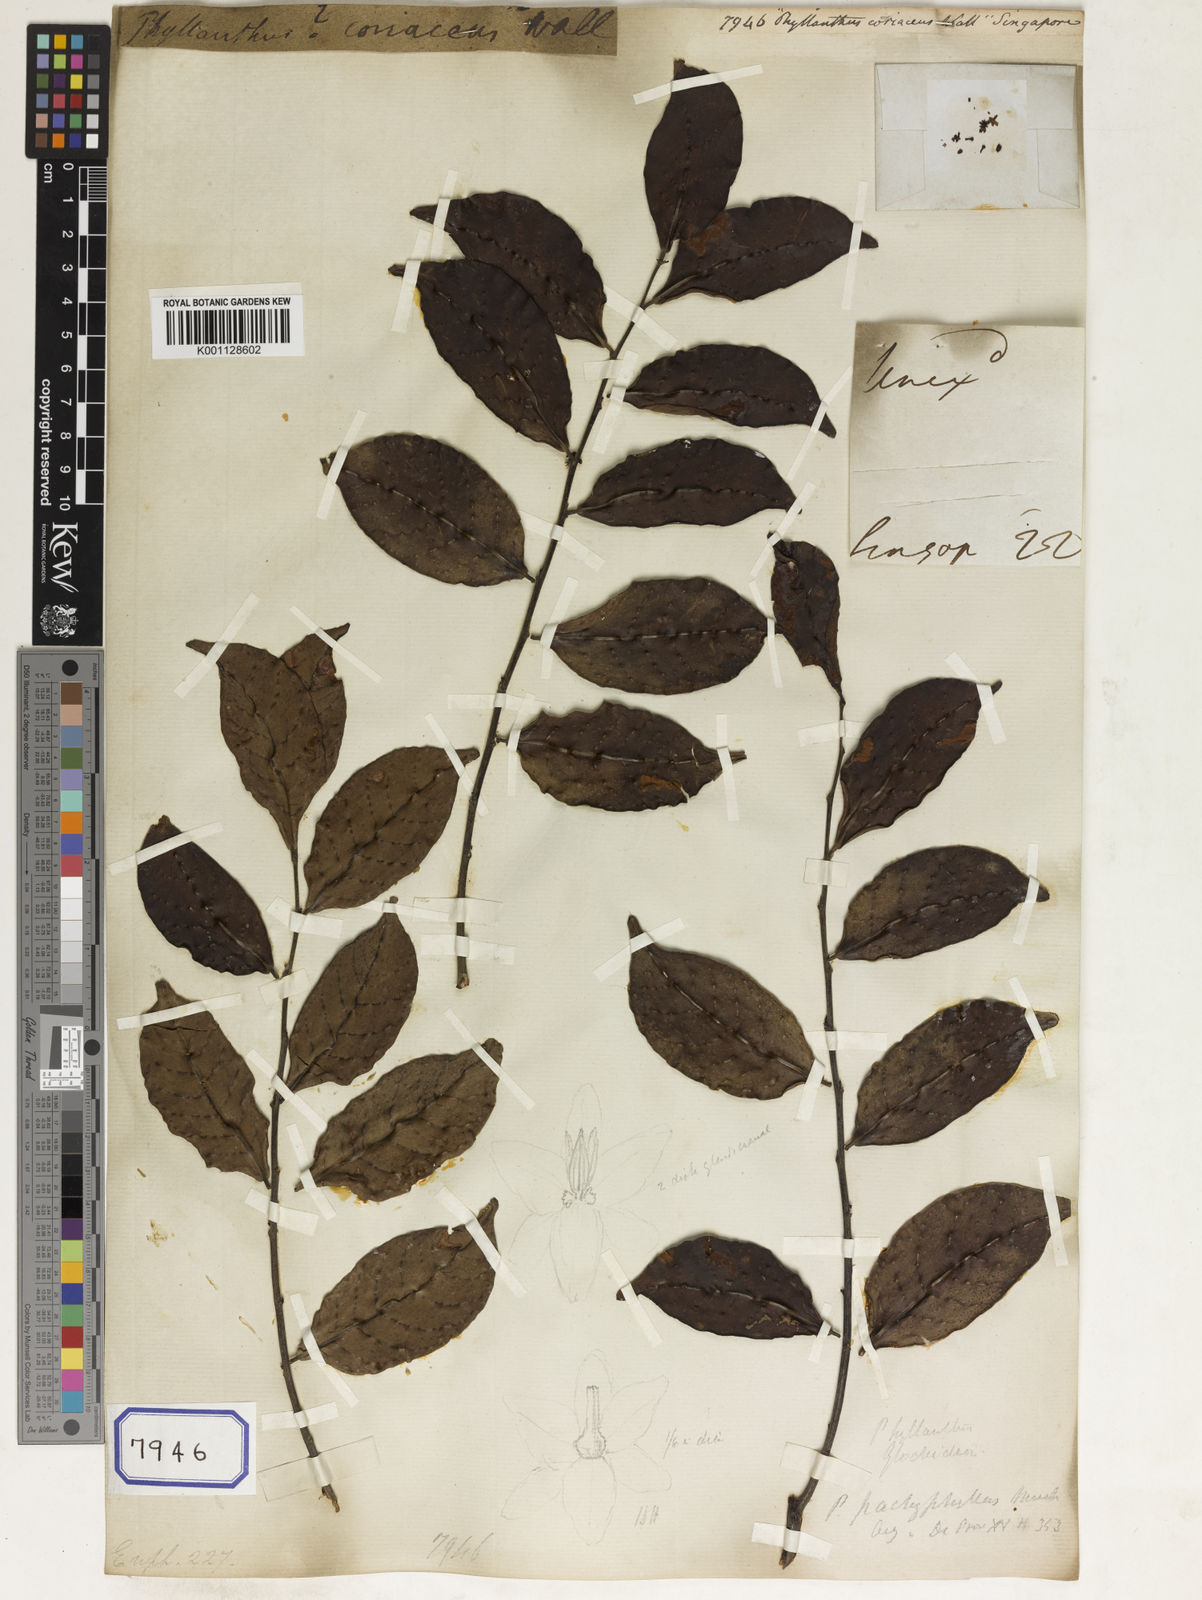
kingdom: Plantae
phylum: Tracheophyta
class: Magnoliopsida
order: Malpighiales
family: Euphorbiaceae
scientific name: Euphorbiaceae
